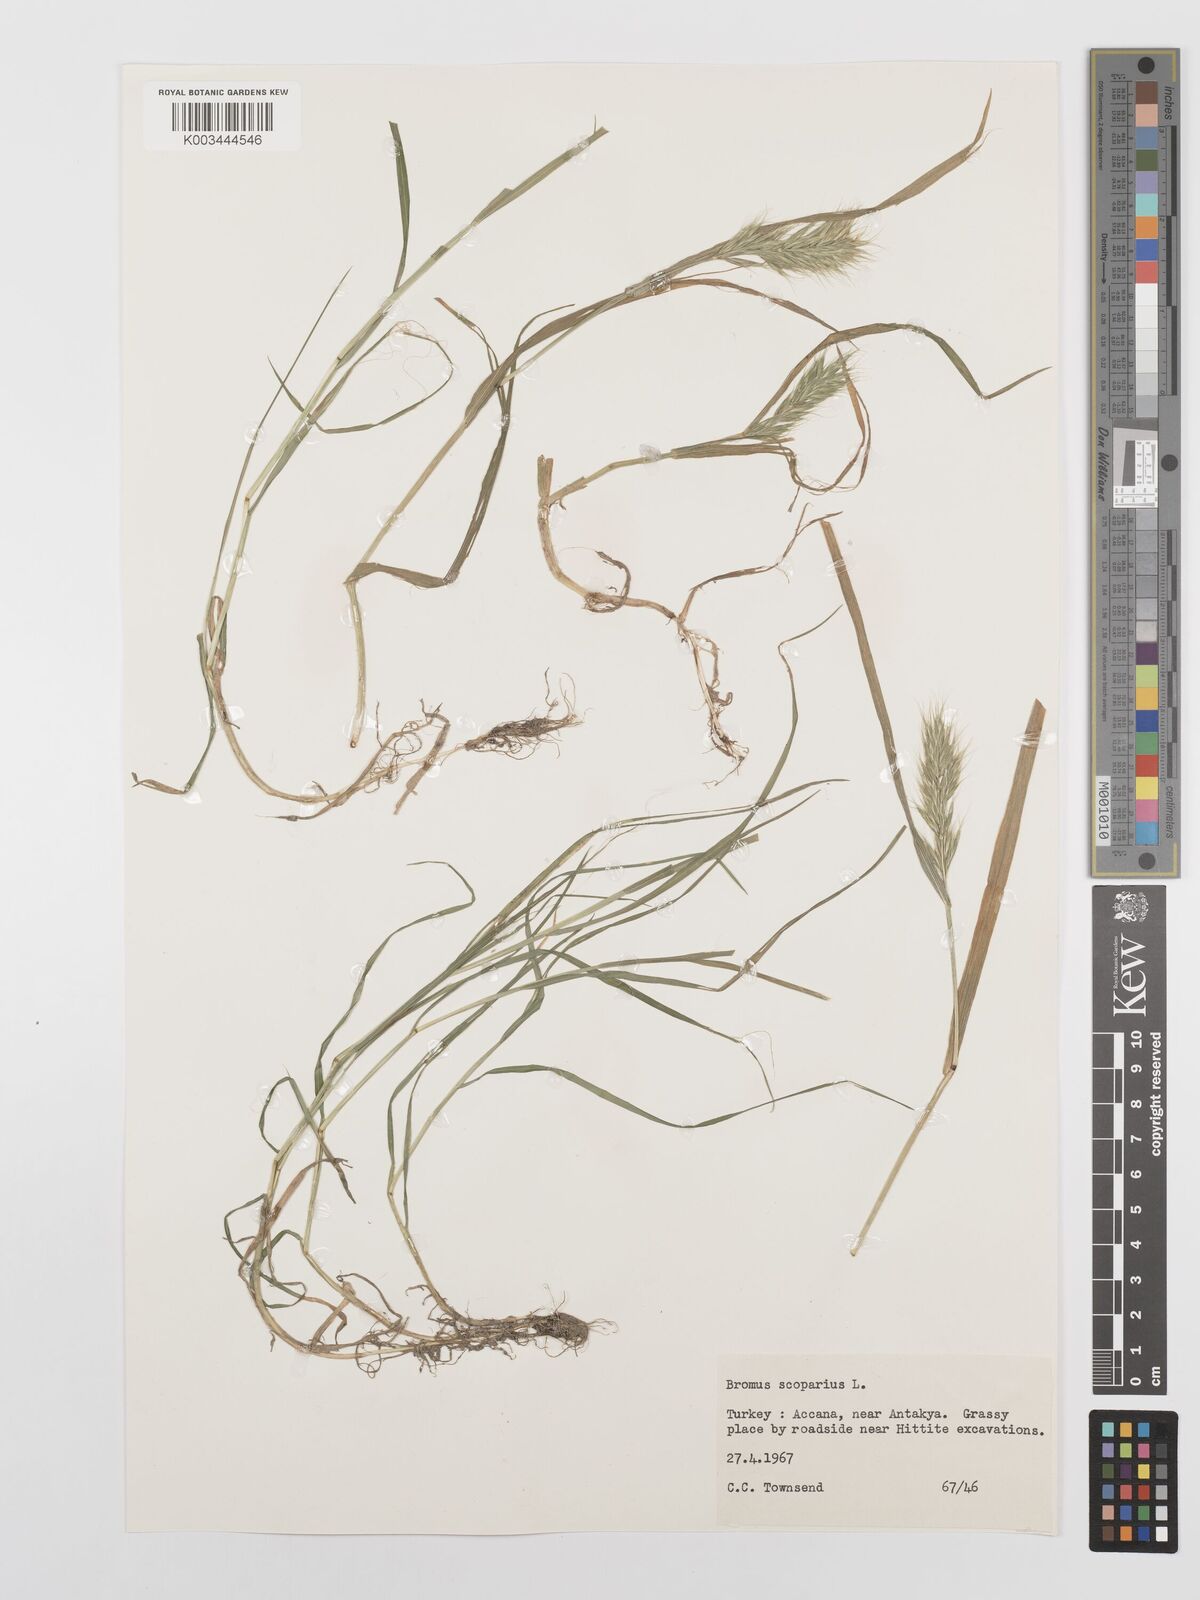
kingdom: Plantae
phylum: Tracheophyta
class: Liliopsida
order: Poales
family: Poaceae
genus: Bromus
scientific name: Bromus scoparius
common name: Broom brome
